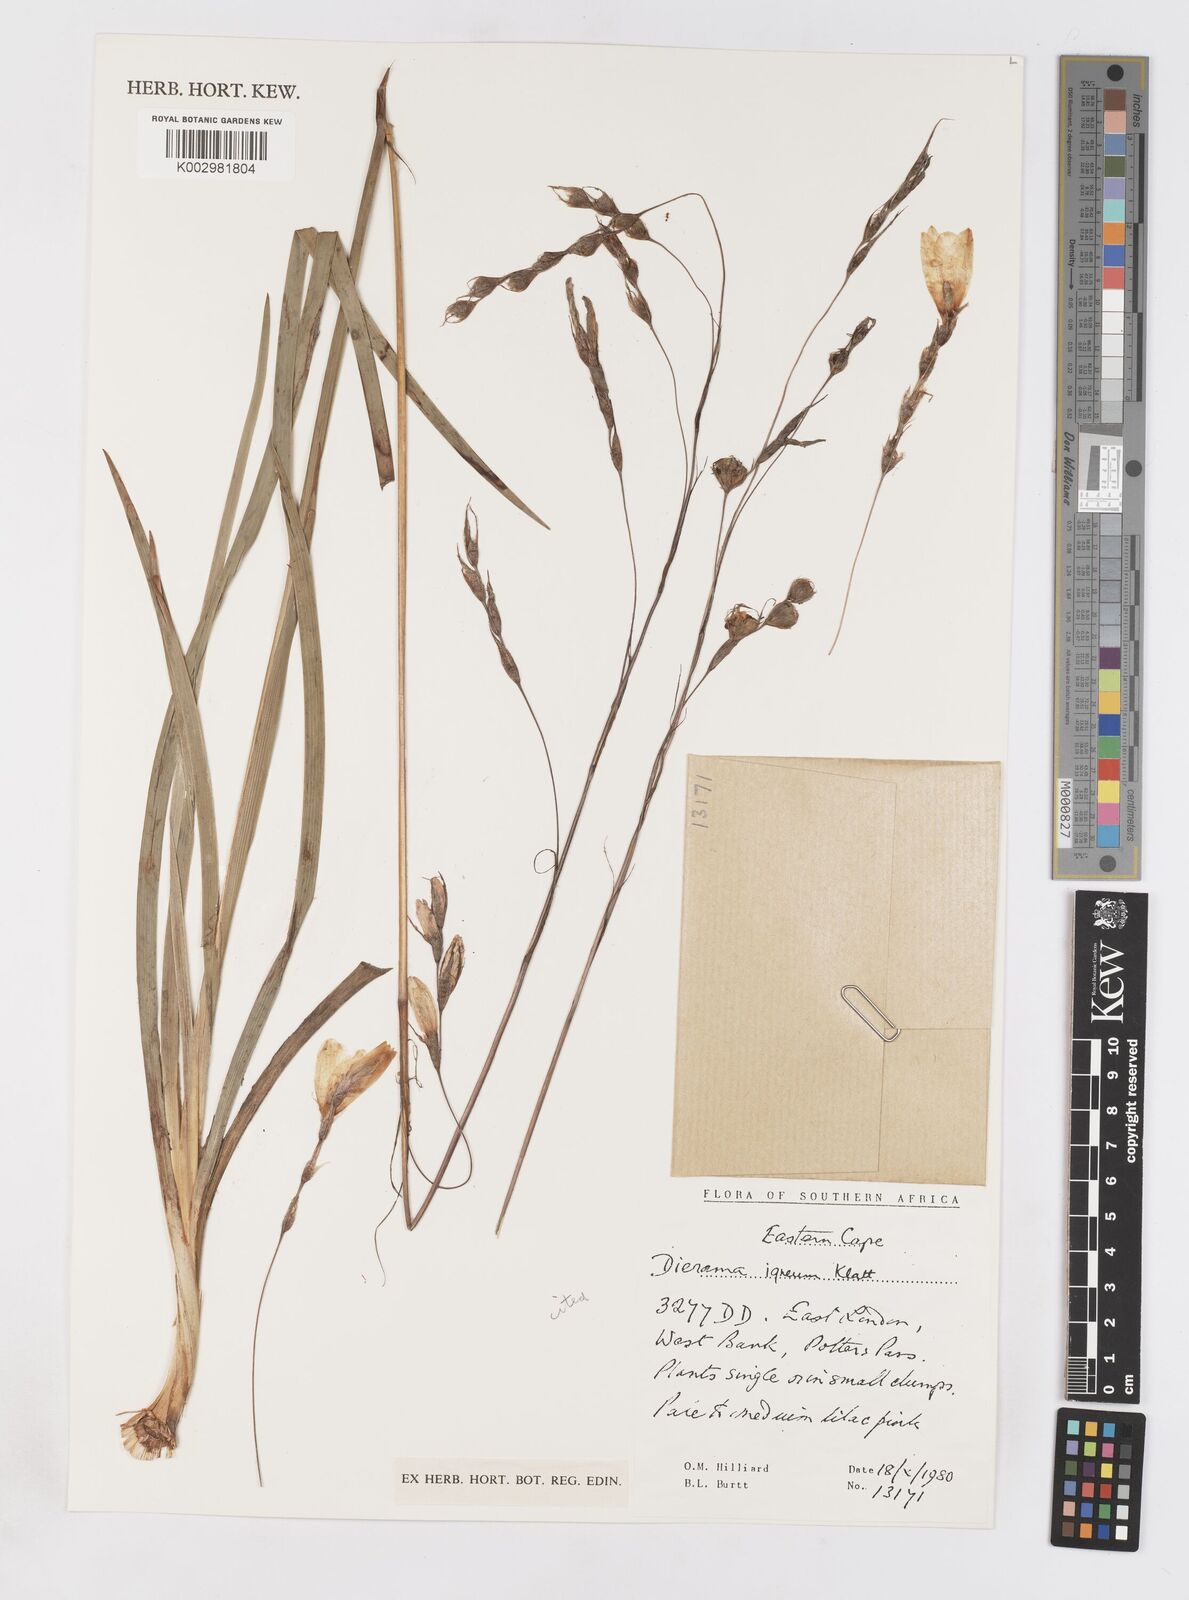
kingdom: Plantae
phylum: Tracheophyta
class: Liliopsida
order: Asparagales
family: Iridaceae
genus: Dierama
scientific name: Dierama igneum
